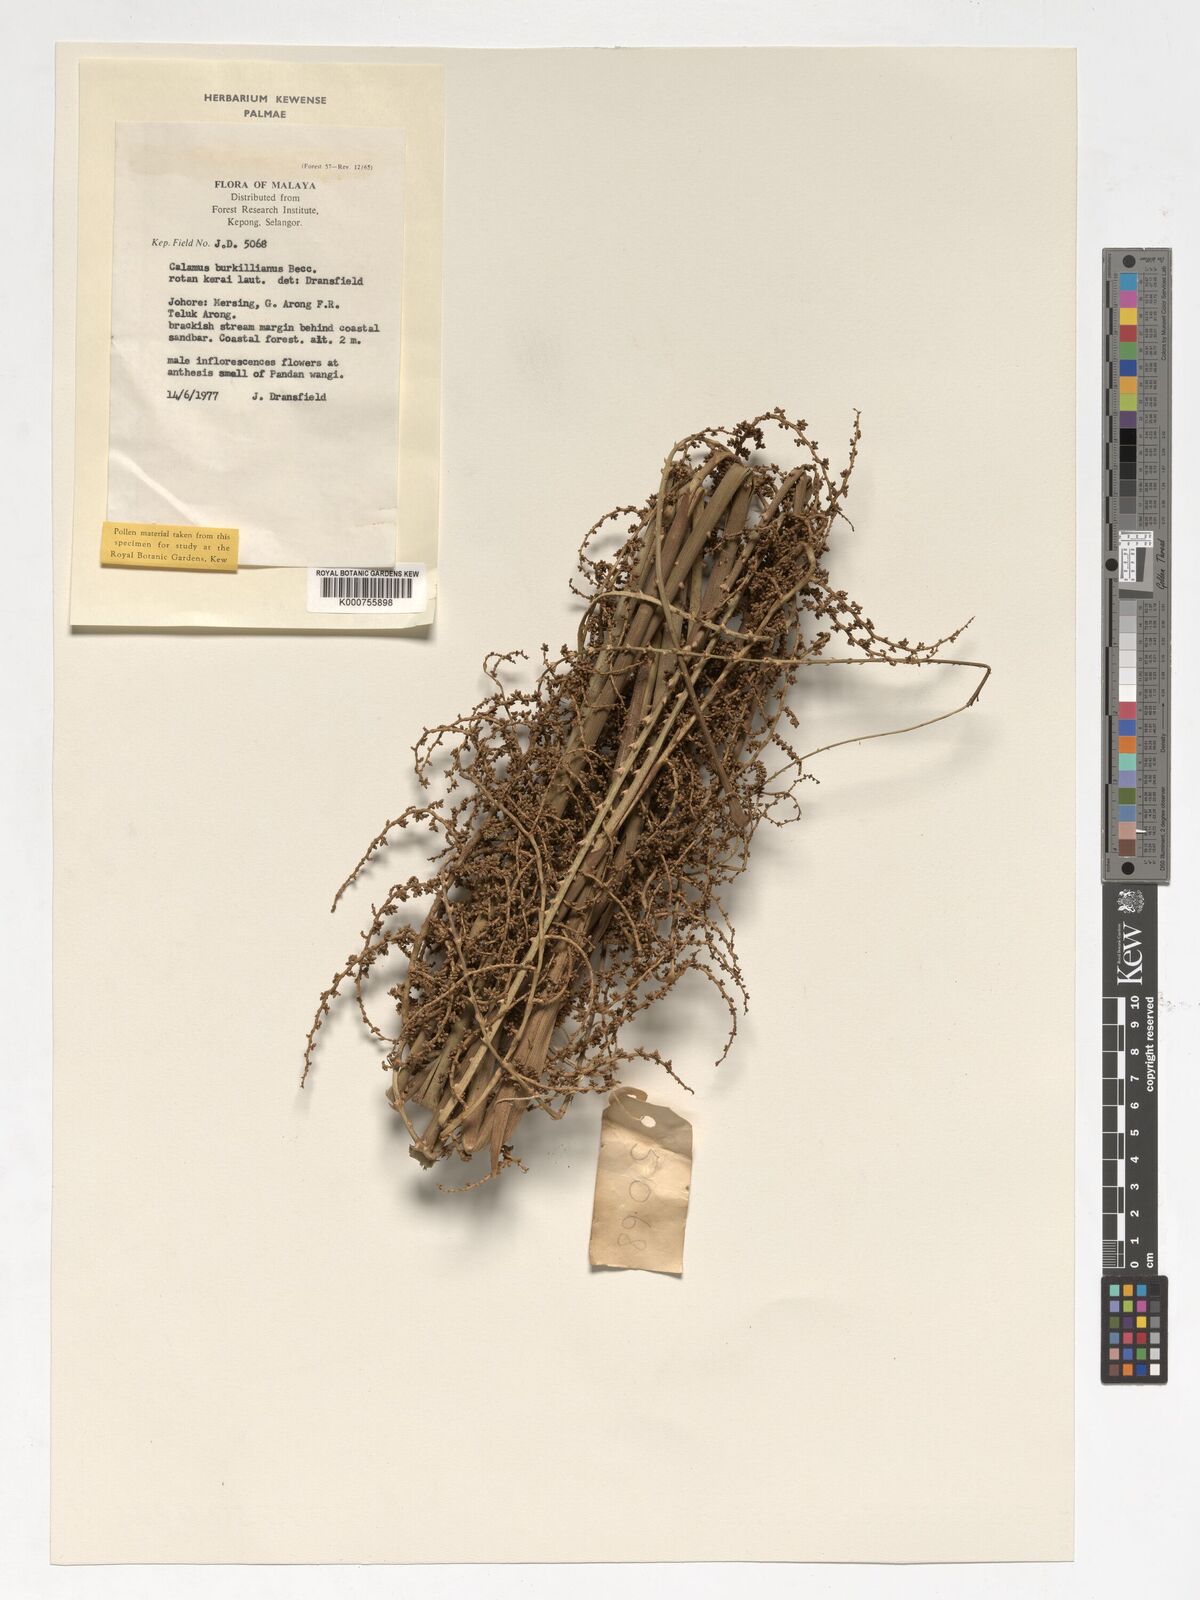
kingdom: Plantae
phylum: Tracheophyta
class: Liliopsida
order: Arecales
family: Arecaceae
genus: Calamus
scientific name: Calamus burkillianus
